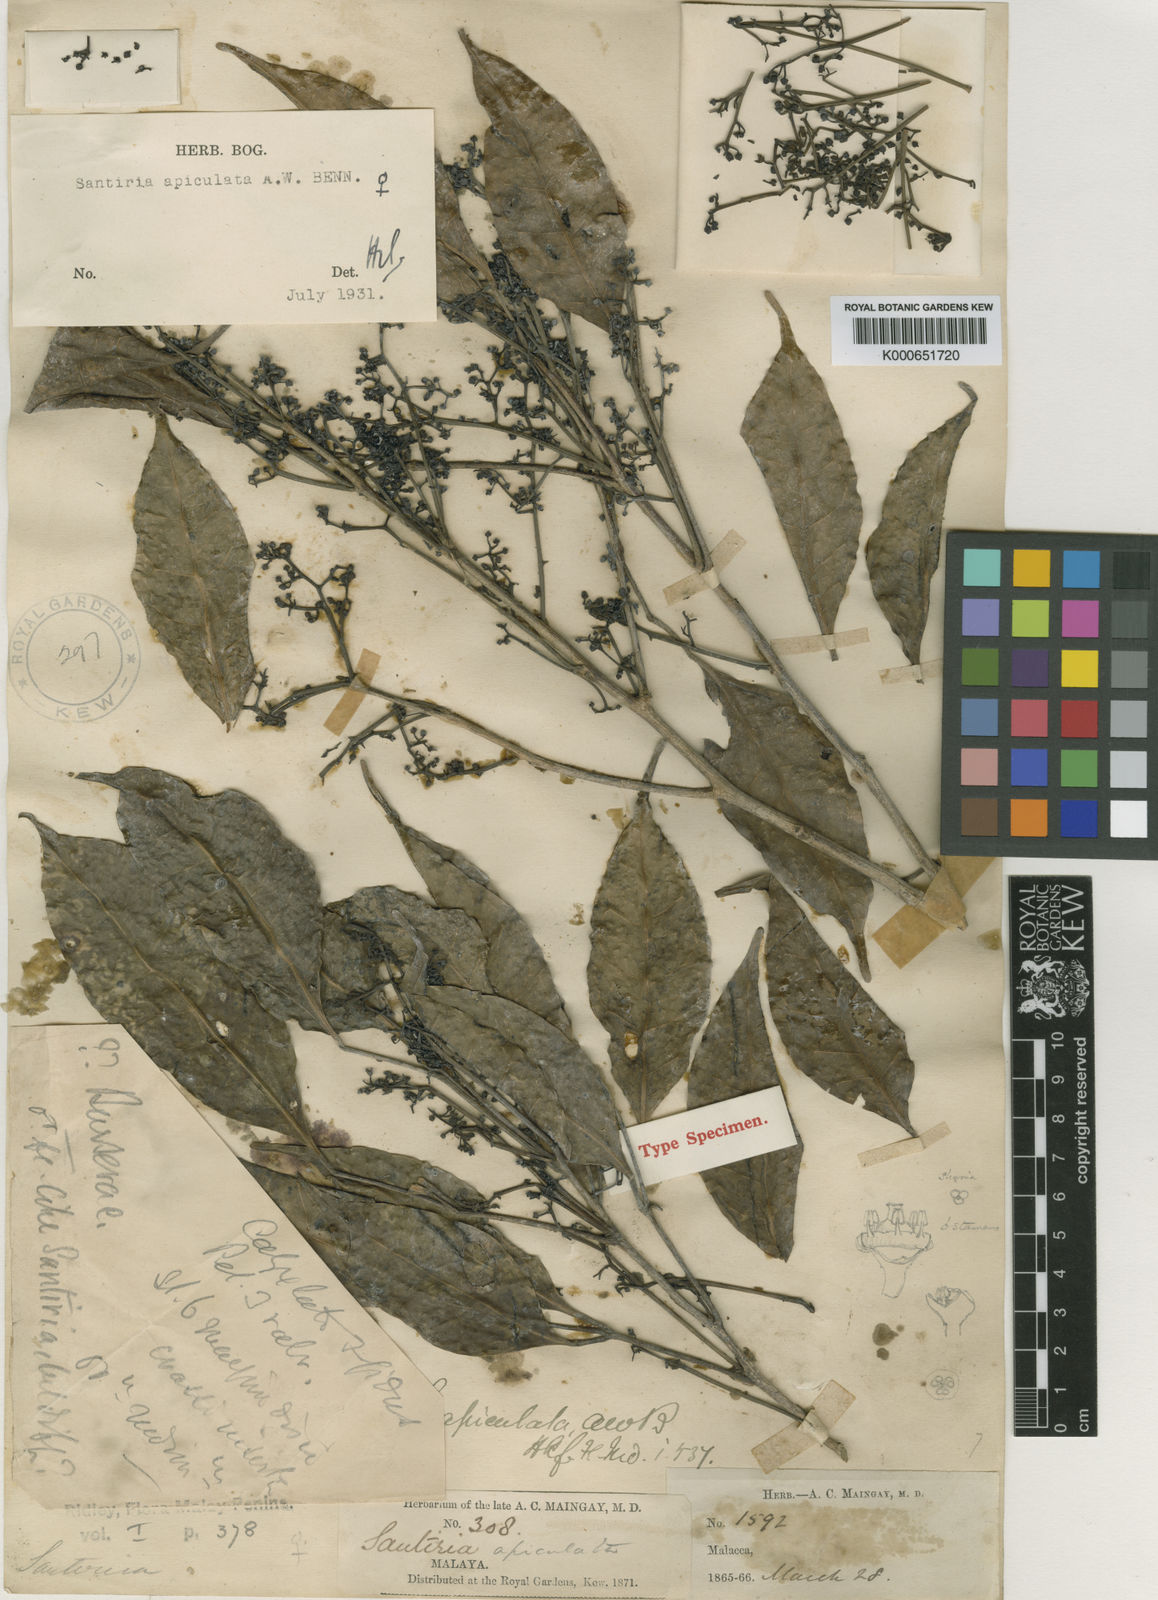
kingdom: Plantae
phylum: Tracheophyta
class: Magnoliopsida
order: Sapindales
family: Burseraceae
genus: Santiria
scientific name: Santiria apiculata
